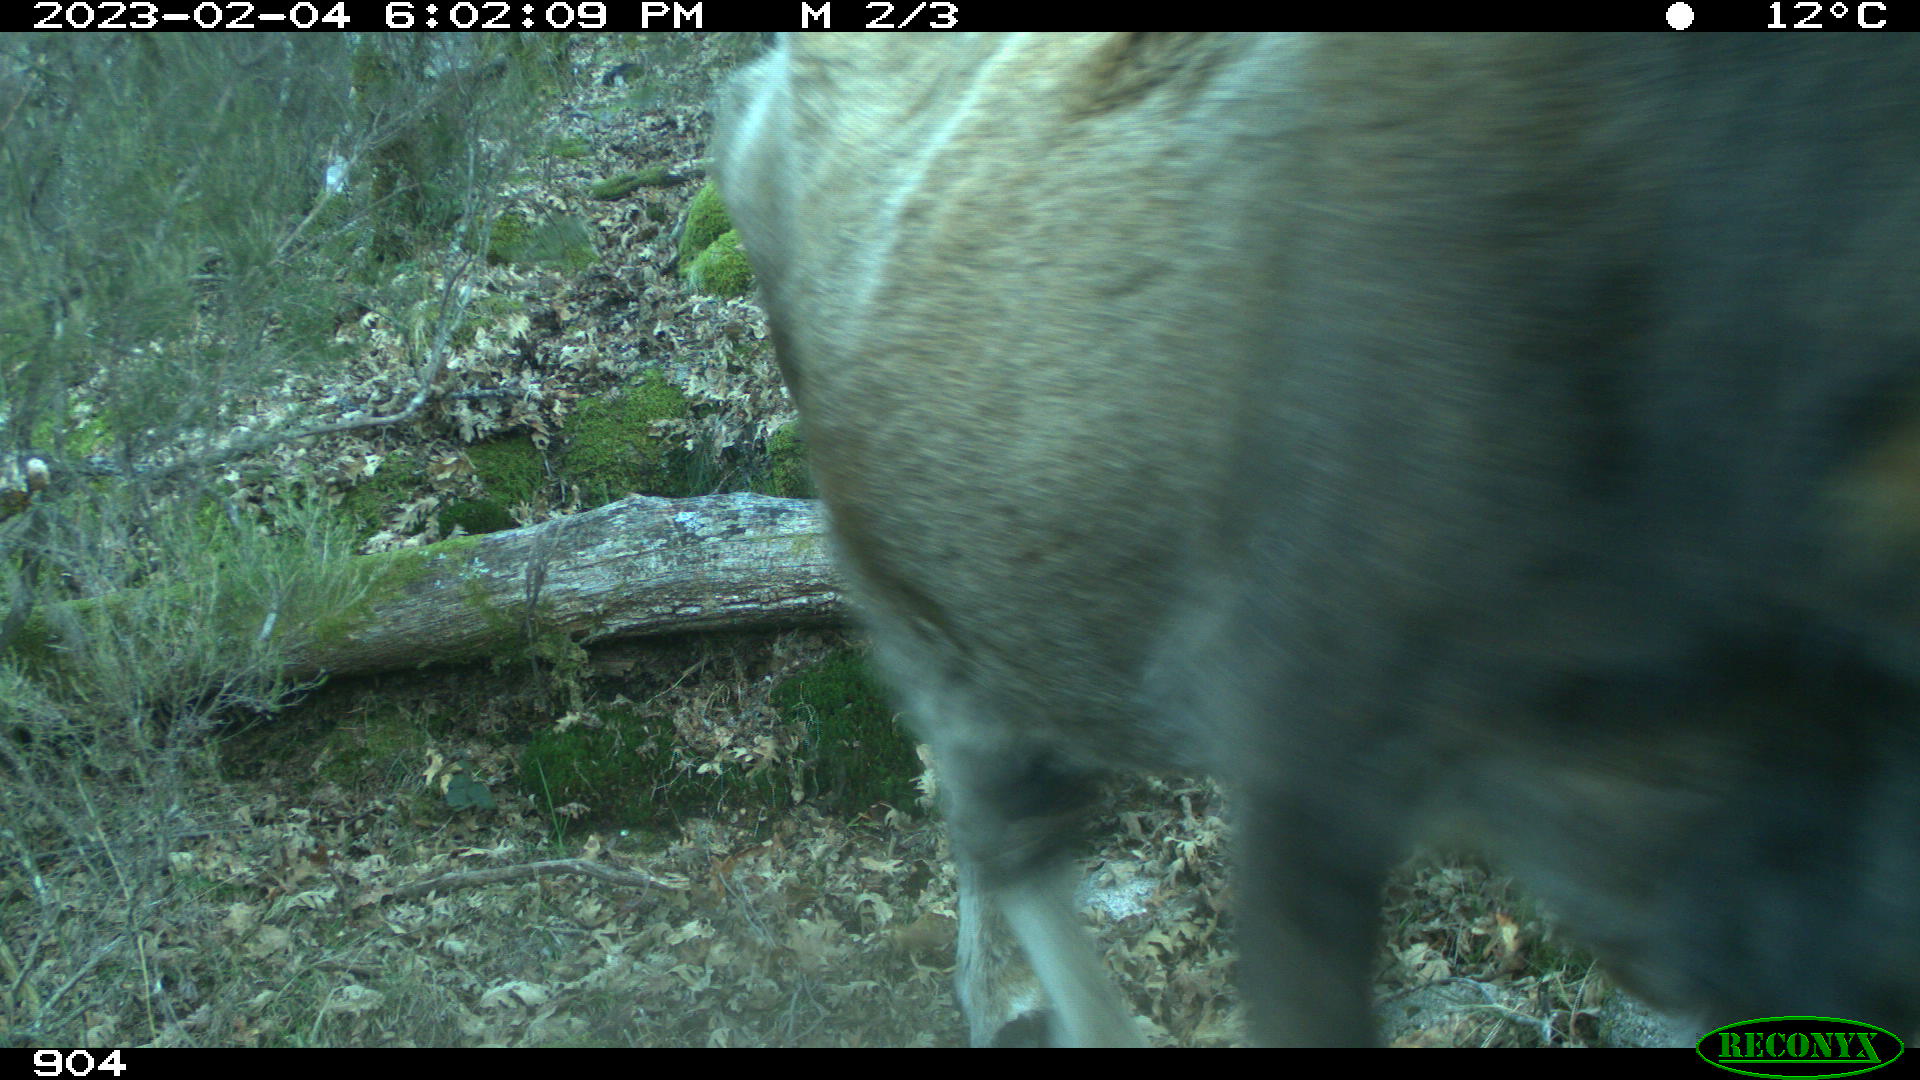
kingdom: Animalia
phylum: Chordata
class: Mammalia
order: Artiodactyla
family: Bovidae
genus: Bos
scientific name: Bos taurus
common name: Domesticated cattle
